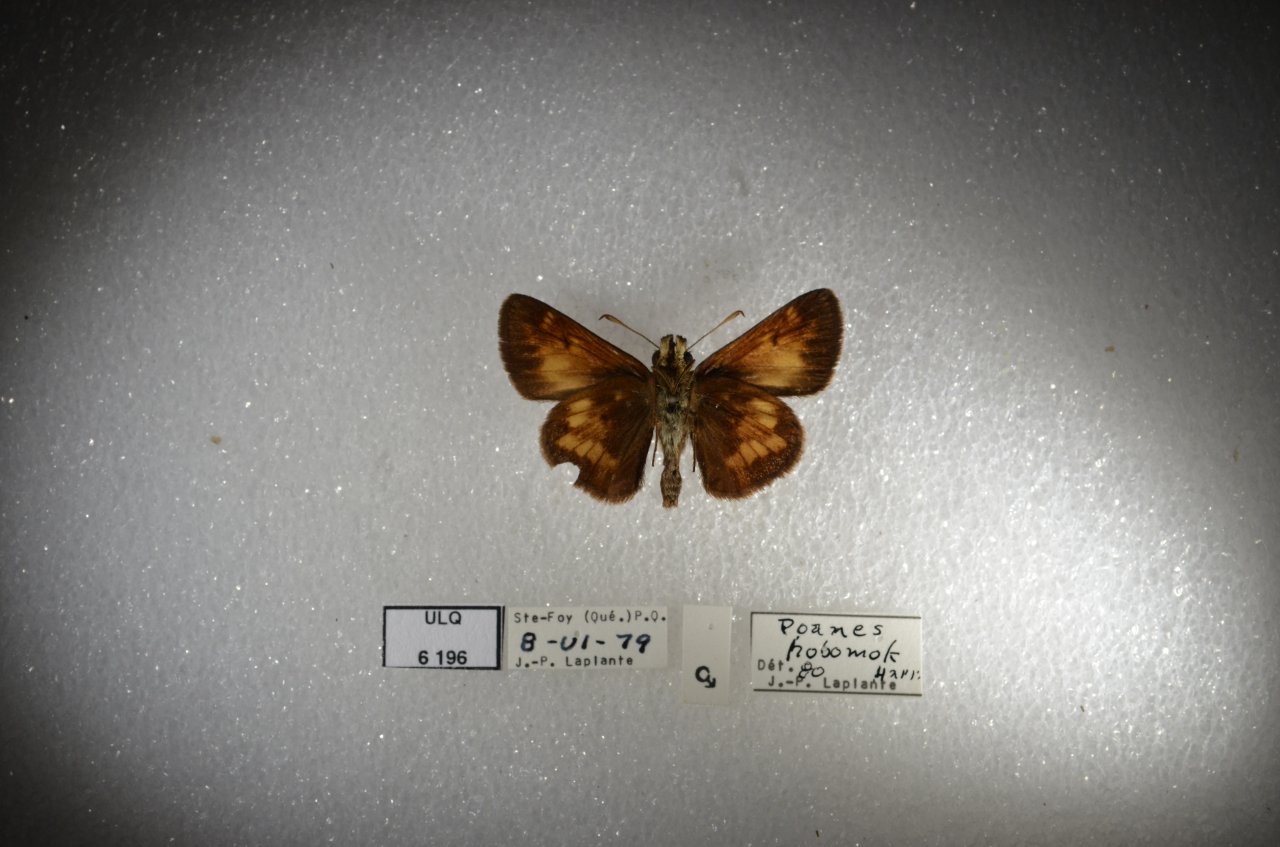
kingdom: Animalia
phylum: Arthropoda
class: Insecta
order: Lepidoptera
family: Hesperiidae
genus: Lon
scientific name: Lon hobomok
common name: Hobomok Skipper
